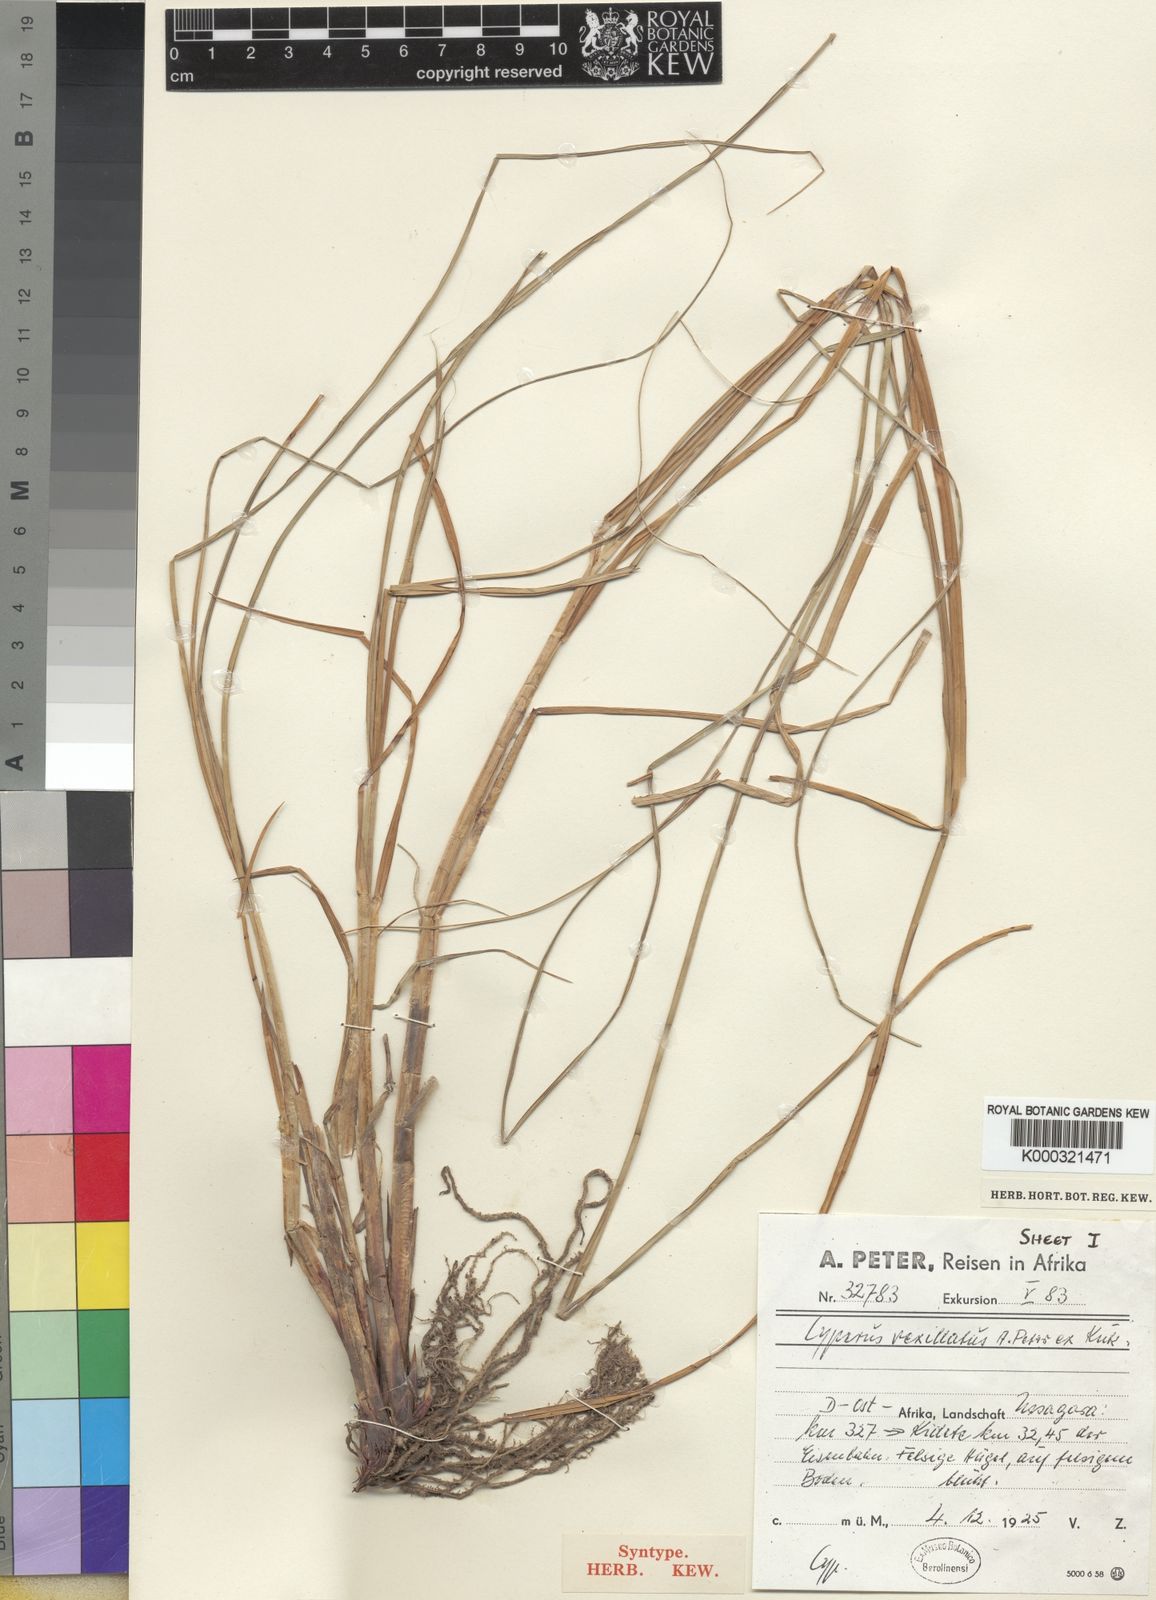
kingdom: Plantae
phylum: Tracheophyta
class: Liliopsida
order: Poales
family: Cyperaceae
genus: Cyperus
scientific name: Cyperus
